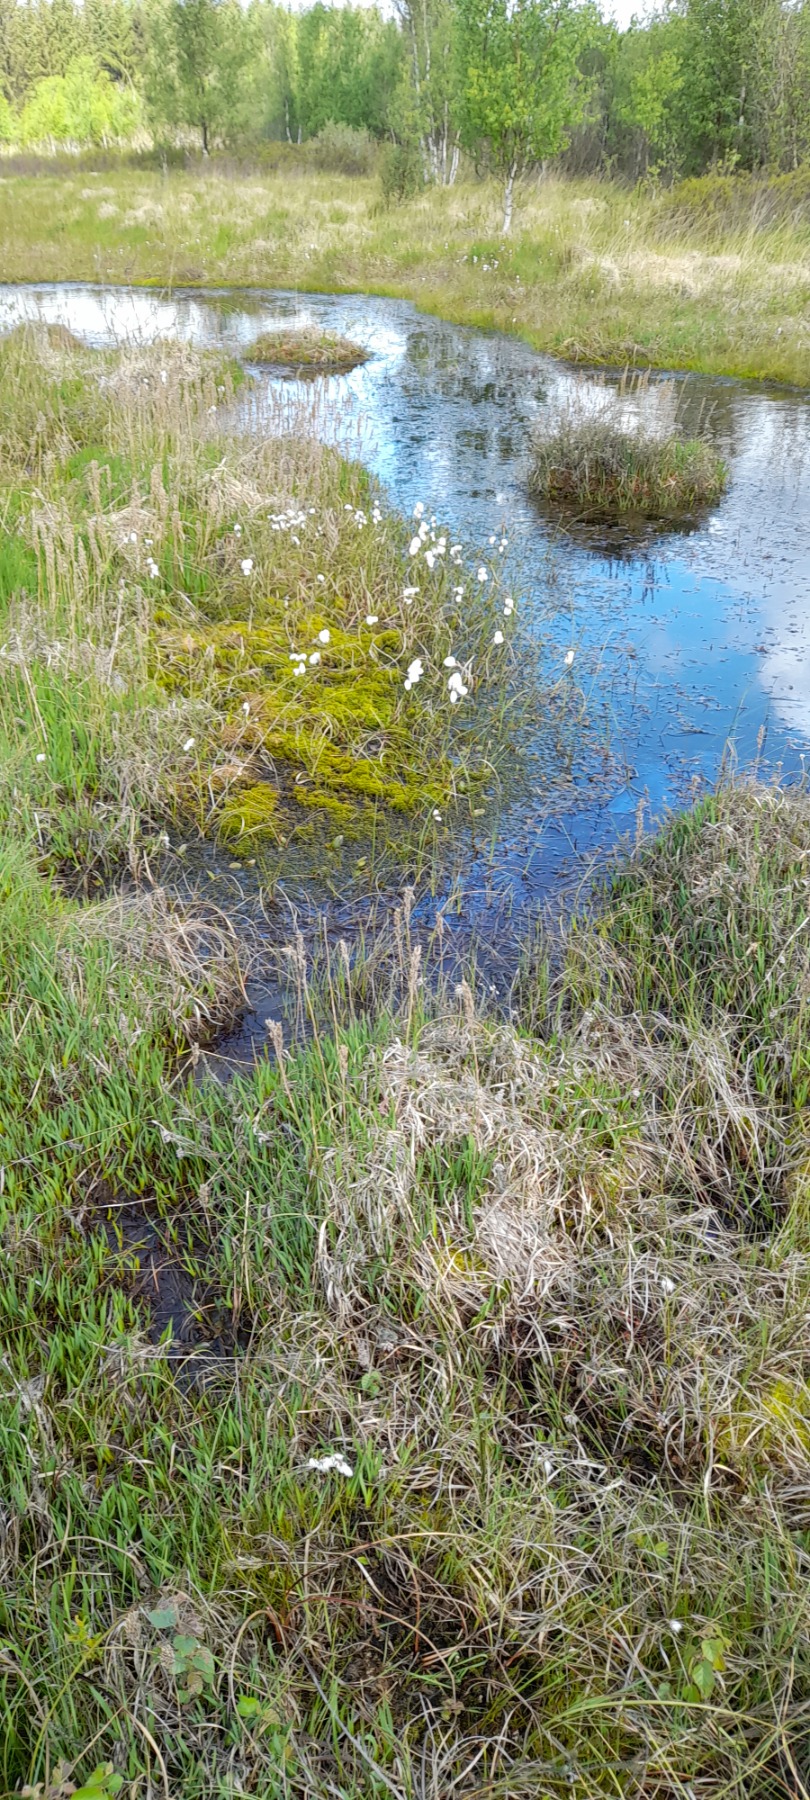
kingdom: Plantae
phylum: Tracheophyta
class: Liliopsida
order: Poales
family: Cyperaceae
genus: Eriophorum
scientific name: Eriophorum angustifolium
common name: Smalbladet kæruld
